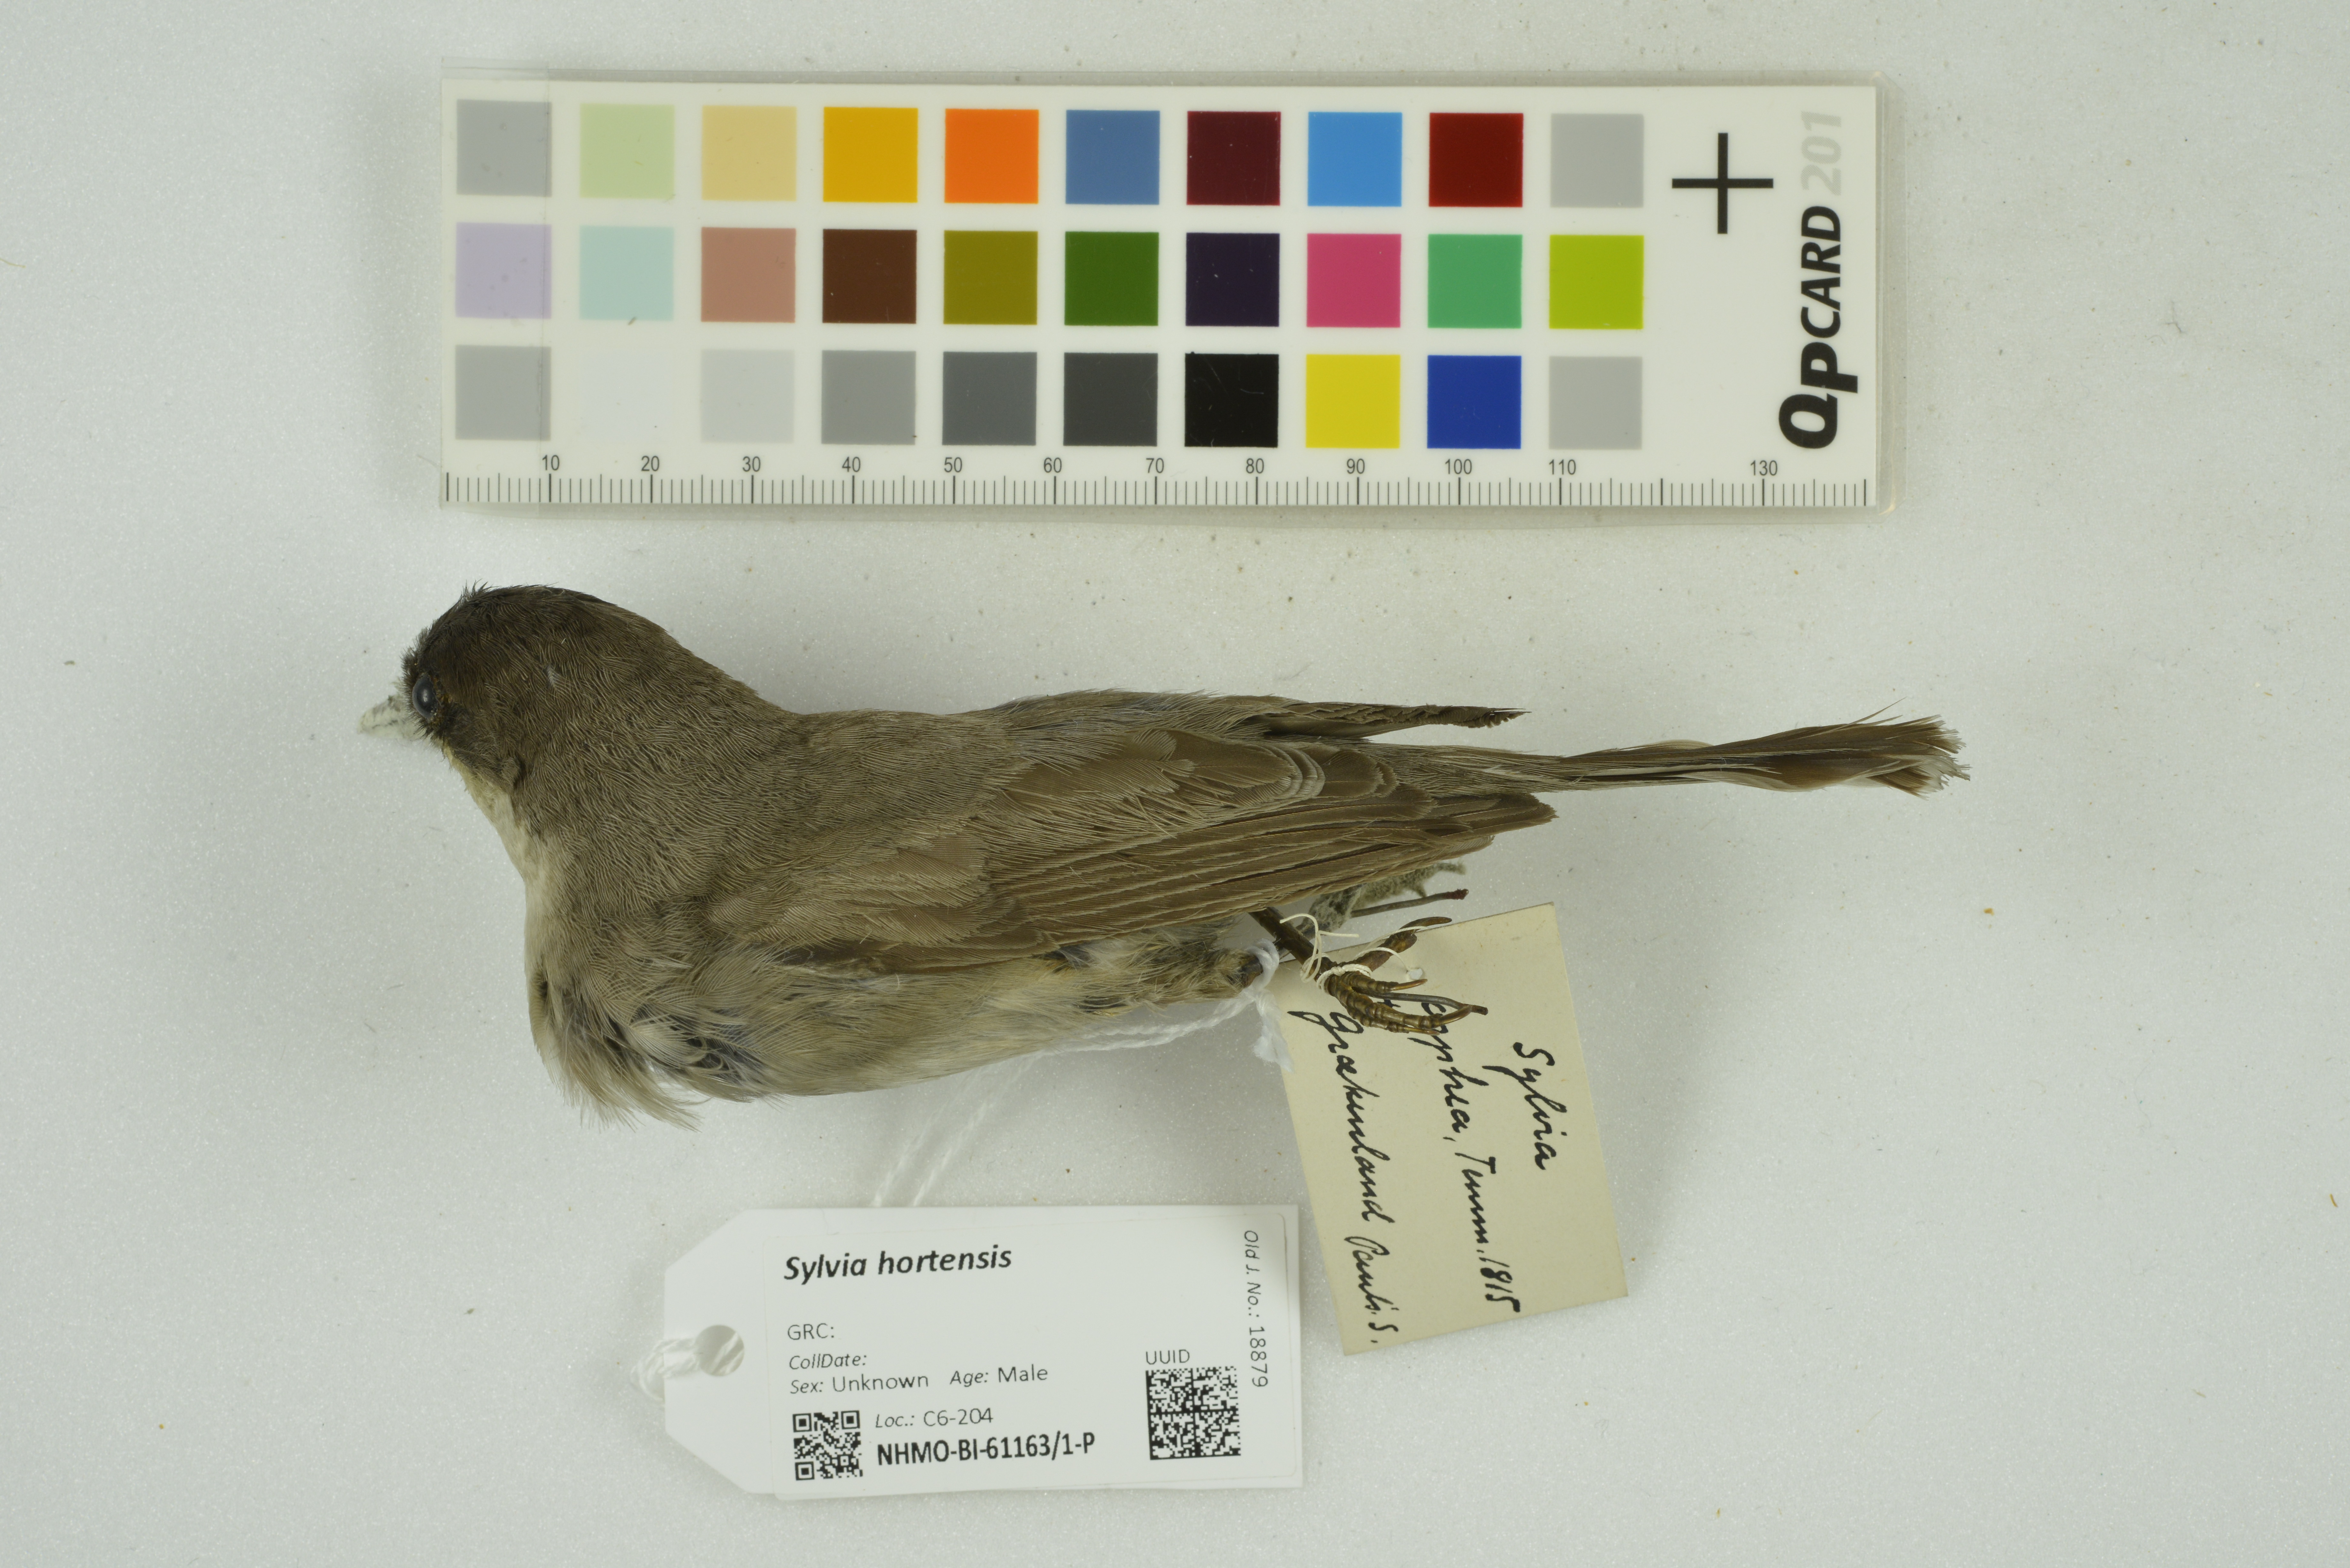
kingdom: Animalia
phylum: Chordata
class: Aves
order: Passeriformes
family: Sylviidae
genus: Sylvia
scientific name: Sylvia hortensis
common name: Orphean warbler
